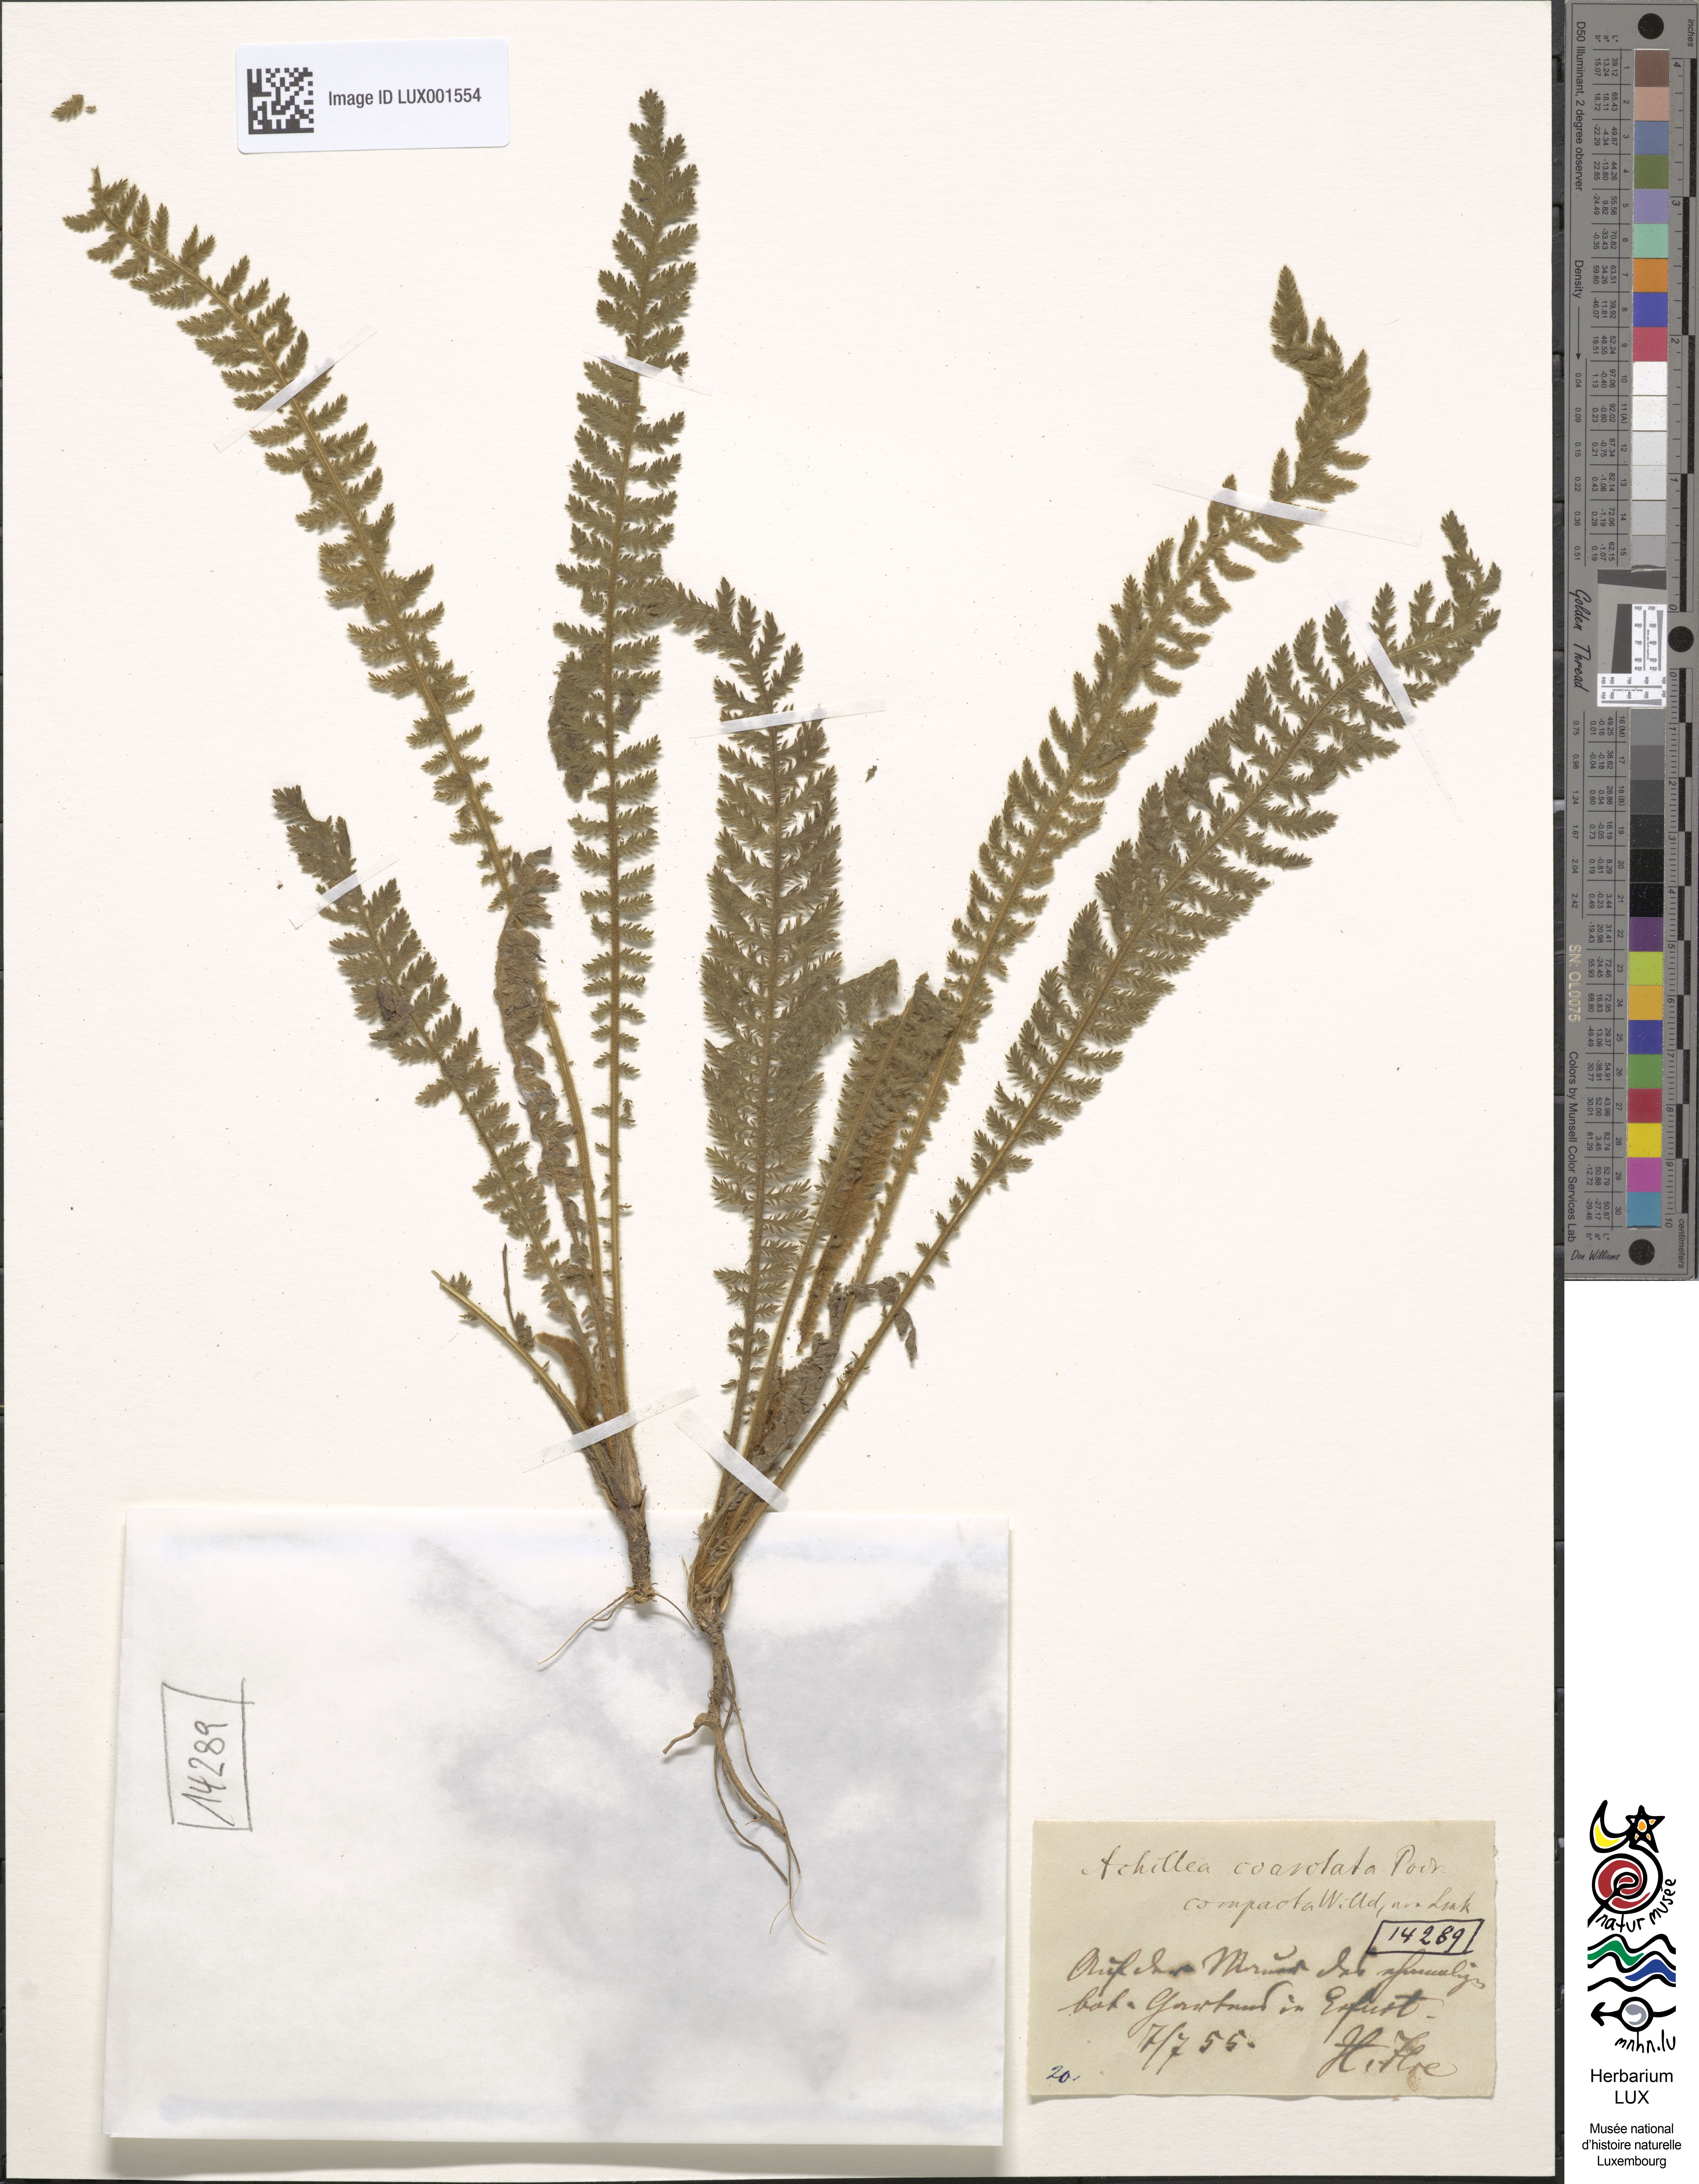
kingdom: Plantae
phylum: Tracheophyta
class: Magnoliopsida
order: Asterales
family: Asteraceae
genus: Achillea
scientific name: Achillea clypeolata
